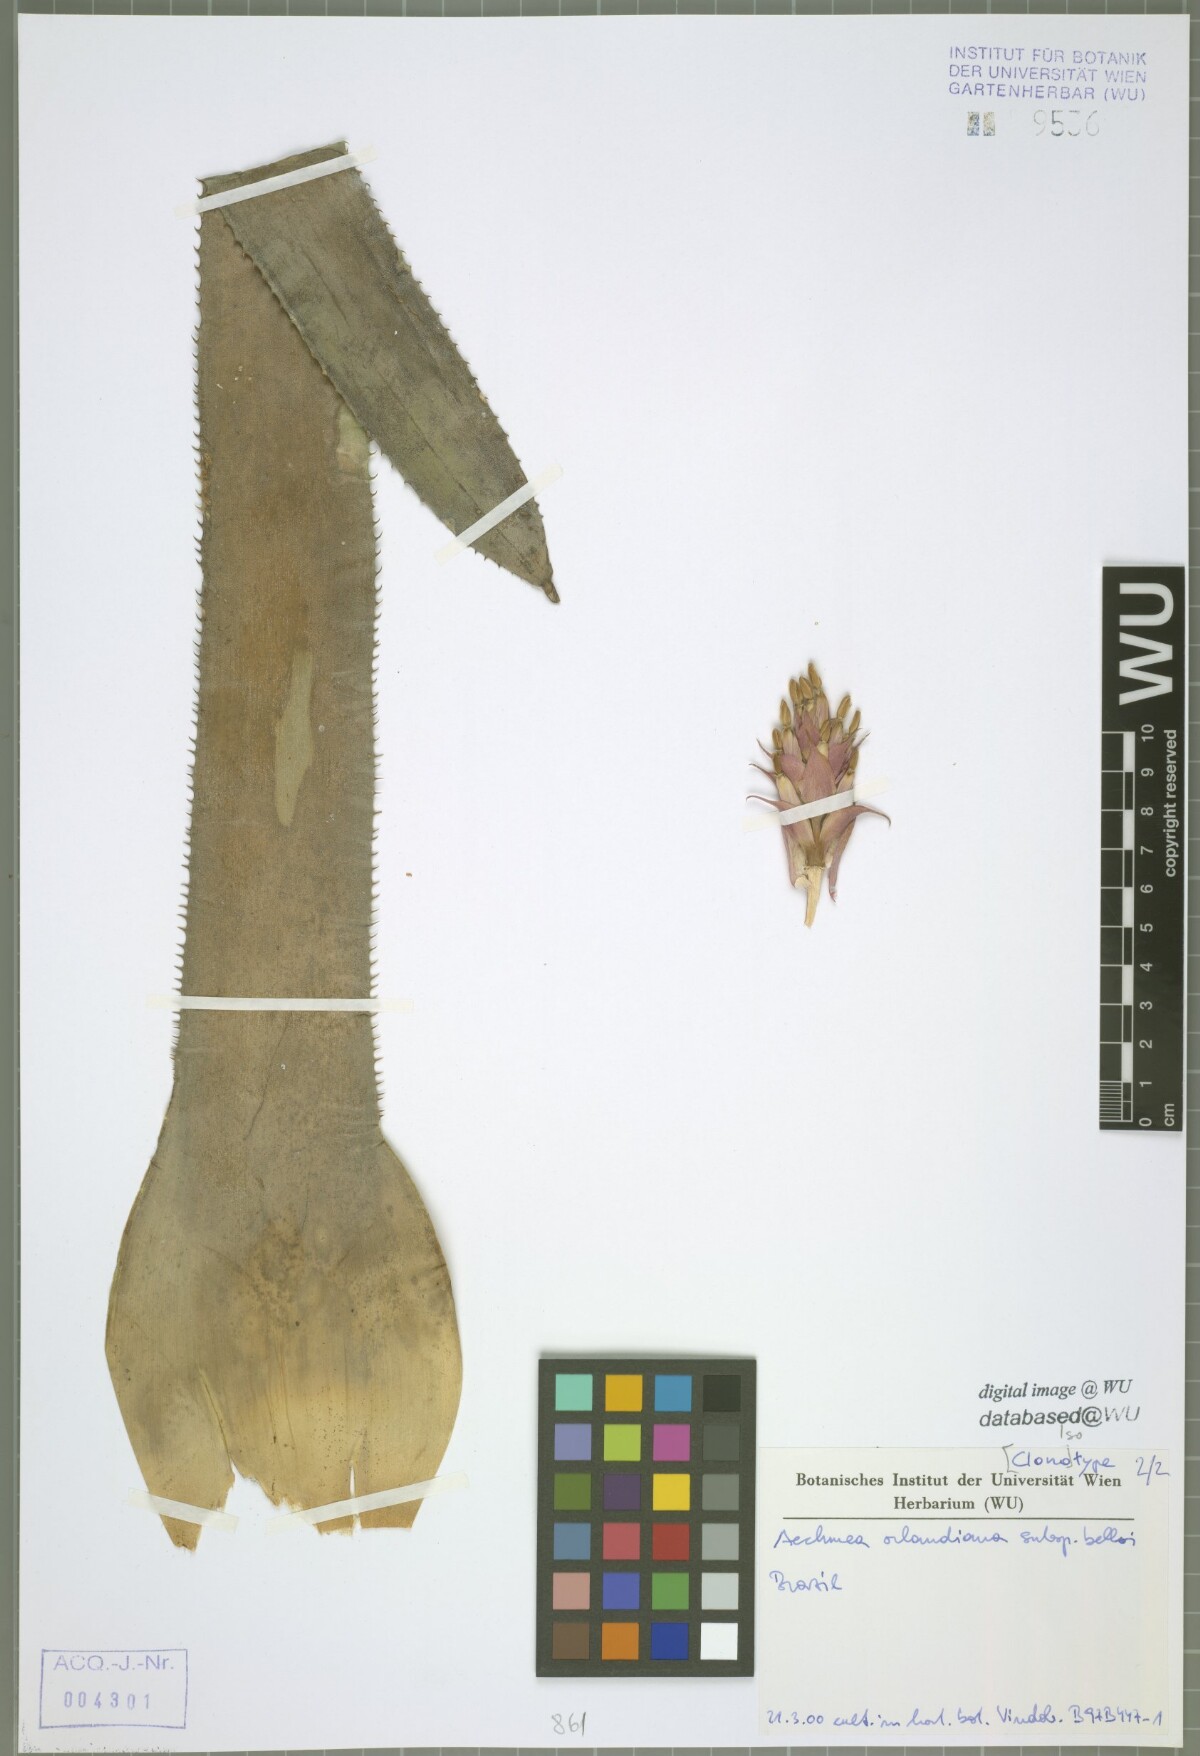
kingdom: Plantae
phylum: Tracheophyta
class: Liliopsida
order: Poales
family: Bromeliaceae
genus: Aechmea
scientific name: Aechmea orlandiana
